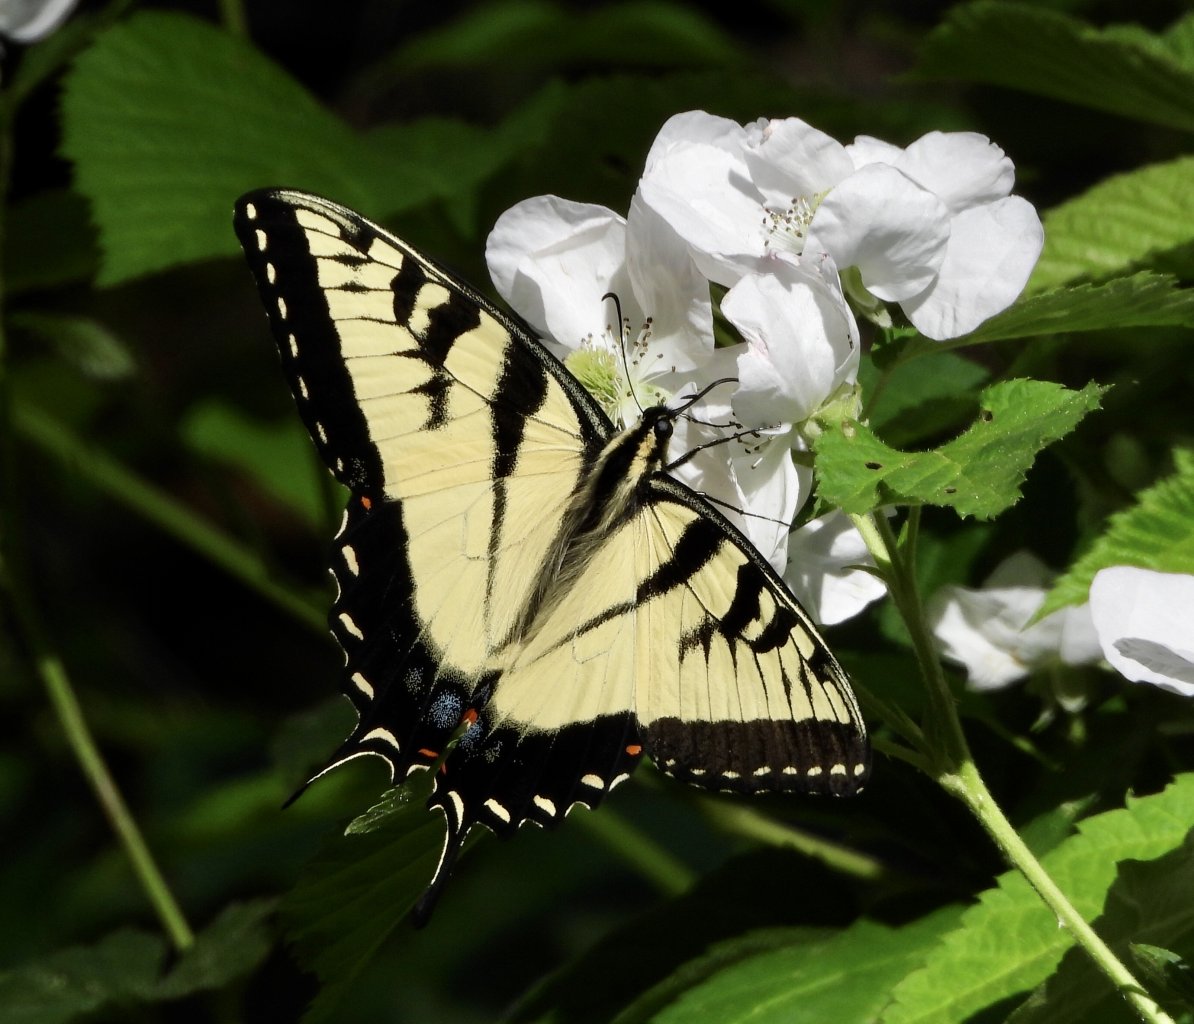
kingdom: Animalia
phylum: Arthropoda
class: Insecta
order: Lepidoptera
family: Papilionidae
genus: Pterourus
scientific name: Pterourus glaucus
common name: Eastern Tiger Swallowtail
